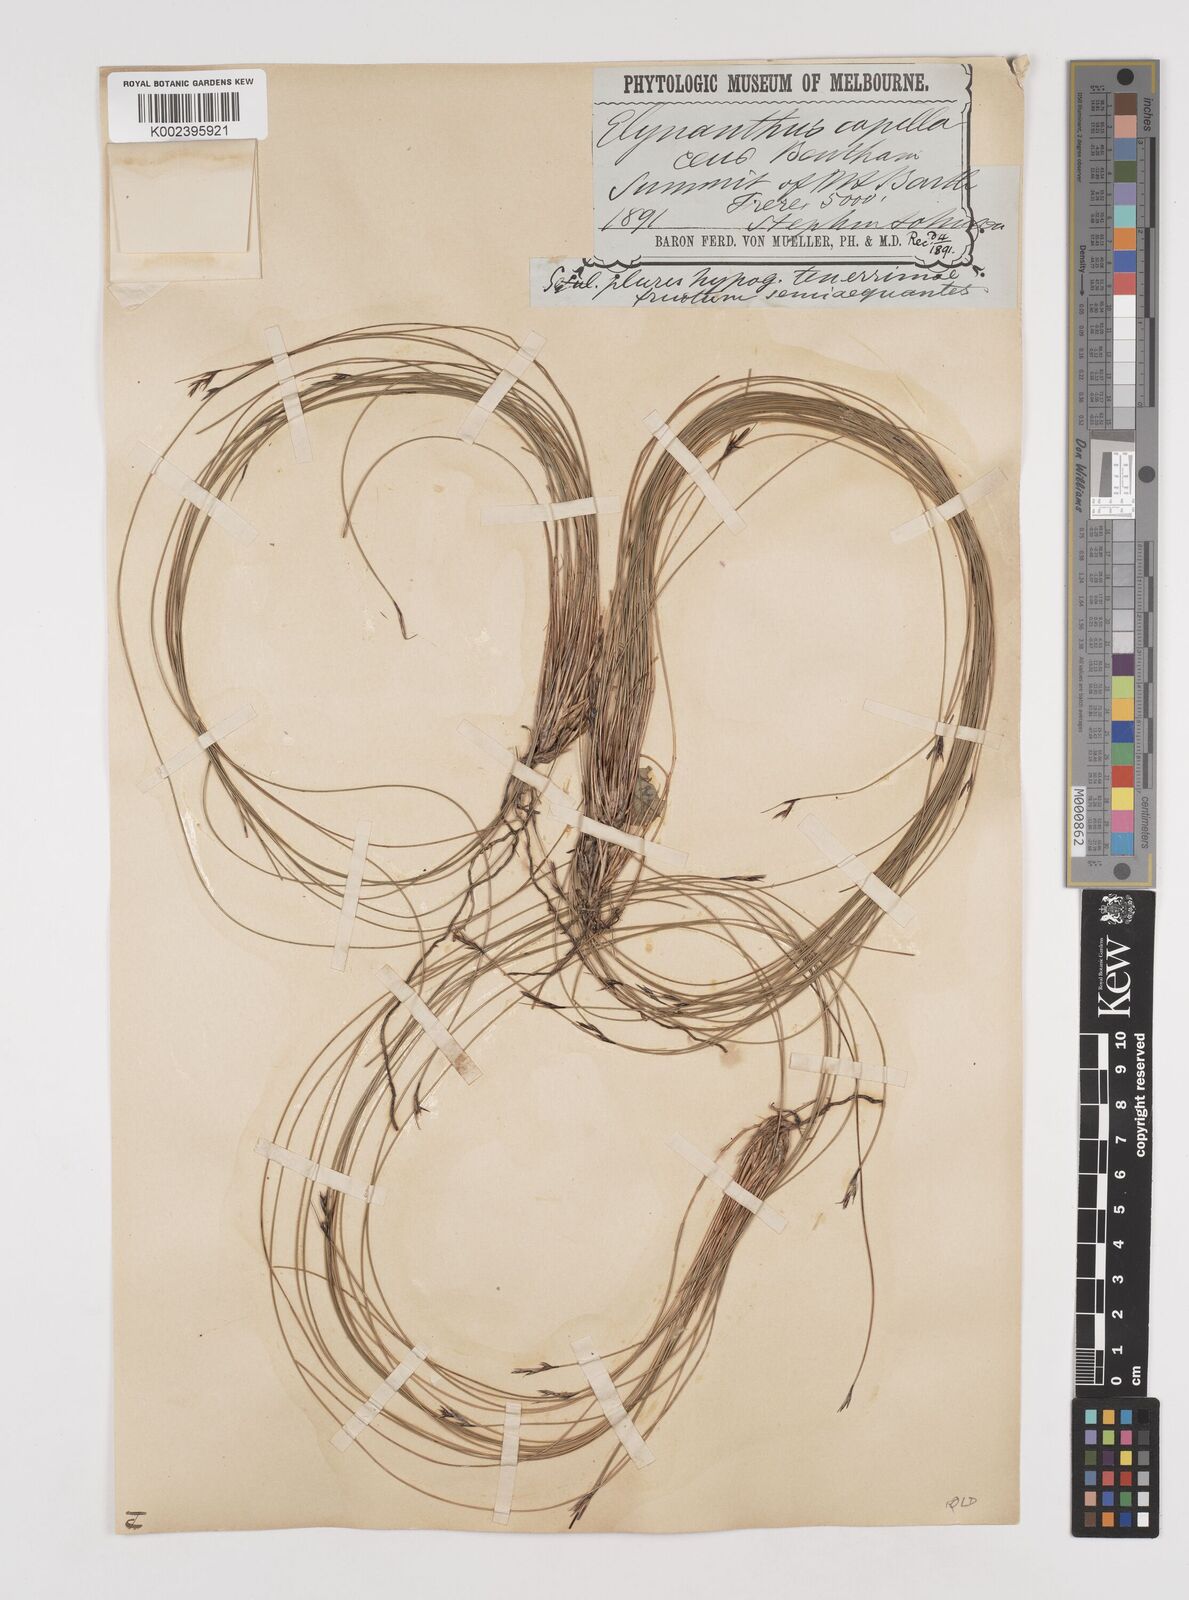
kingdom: Plantae
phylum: Tracheophyta
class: Liliopsida
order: Poales
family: Cyperaceae
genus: Tetraria
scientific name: Tetraria capillaris
